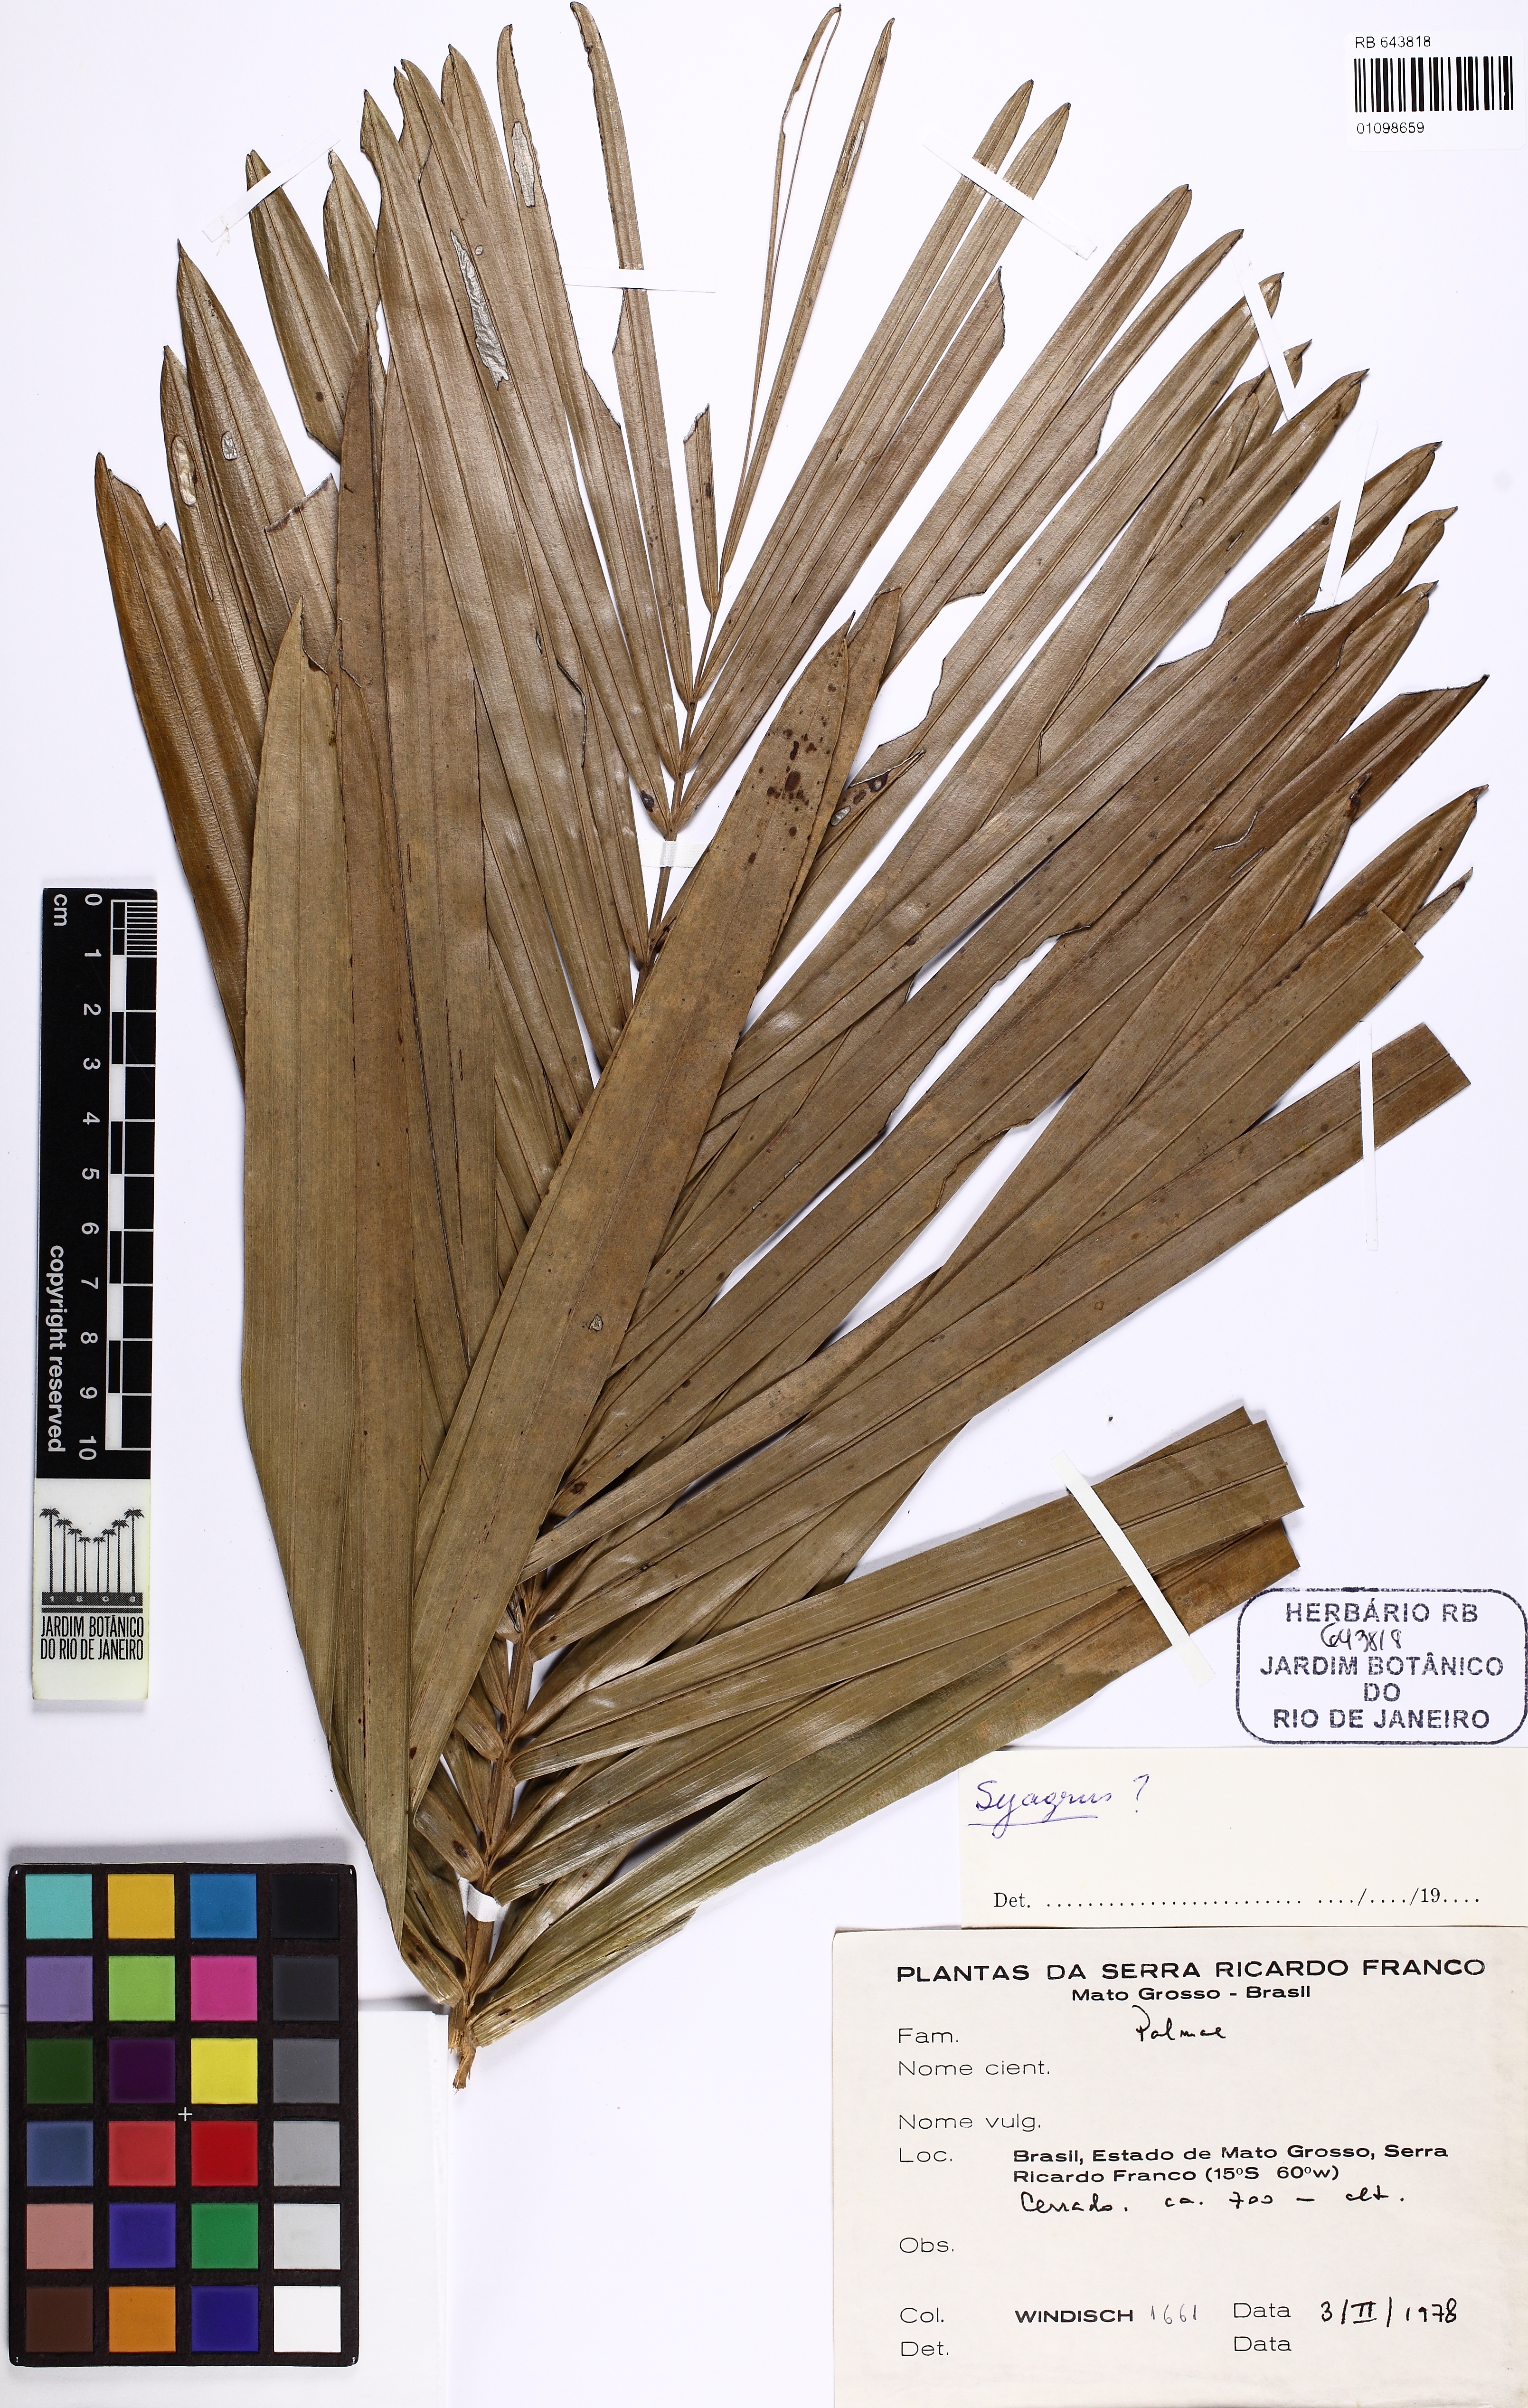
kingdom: Plantae
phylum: Tracheophyta
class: Liliopsida
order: Arecales
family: Arecaceae
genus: Syagrus
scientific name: Syagrus
